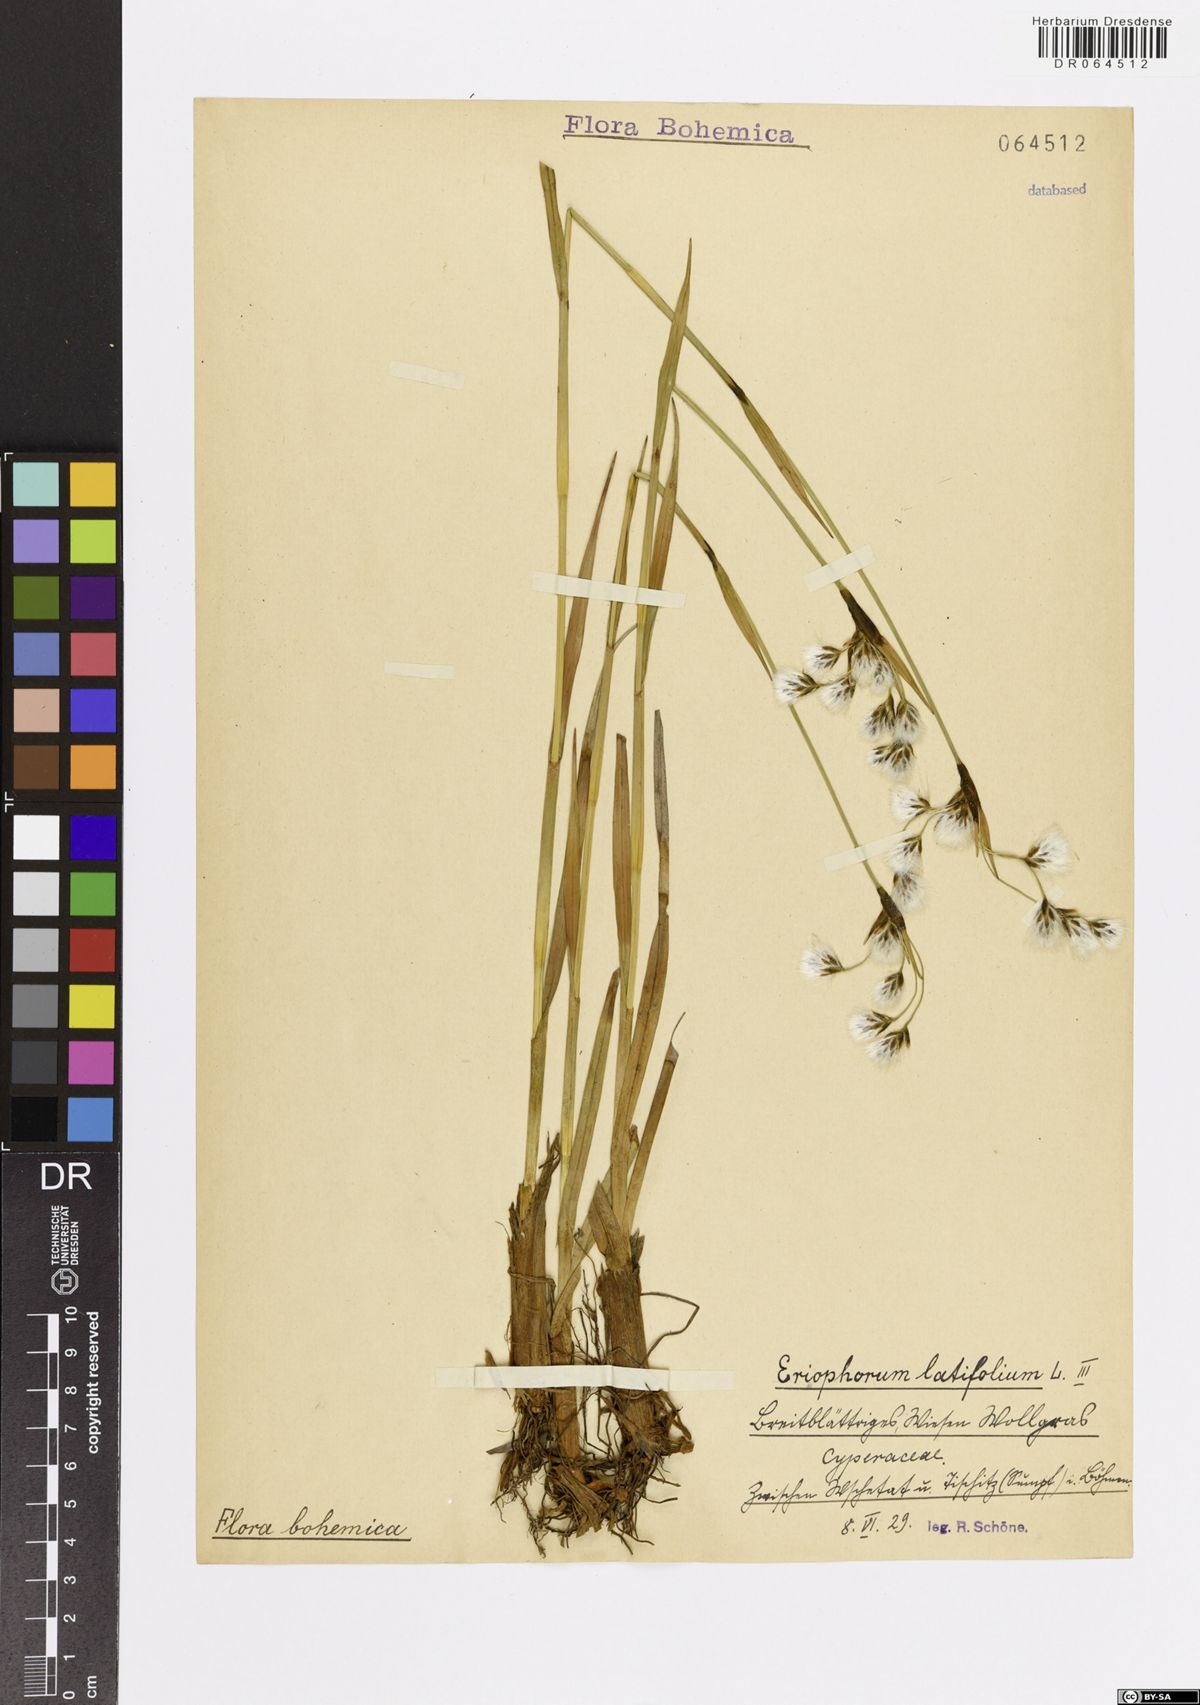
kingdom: Plantae
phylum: Tracheophyta
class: Liliopsida
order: Poales
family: Cyperaceae
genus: Eriophorum
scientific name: Eriophorum latifolium
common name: Broad-leaved cottongrass
